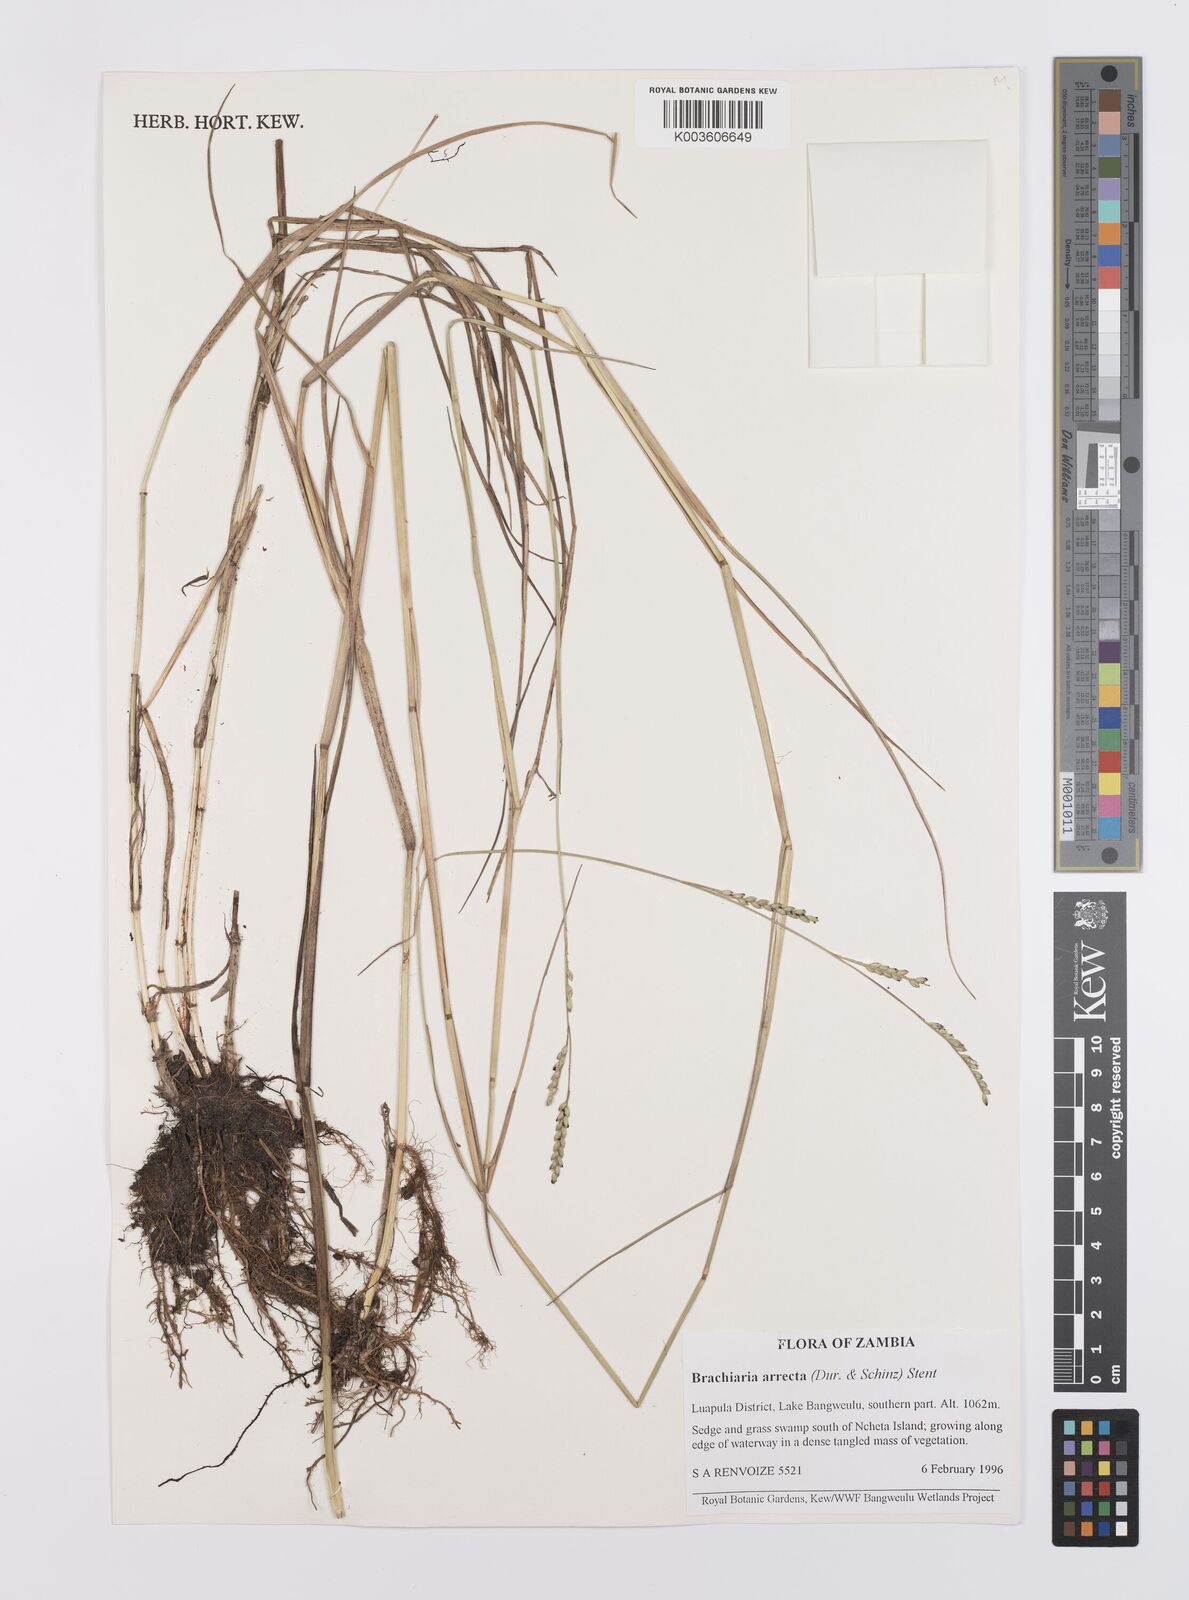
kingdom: Plantae
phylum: Tracheophyta
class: Liliopsida
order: Poales
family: Poaceae
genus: Urochloa
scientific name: Urochloa arrecta
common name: African signalgrass
